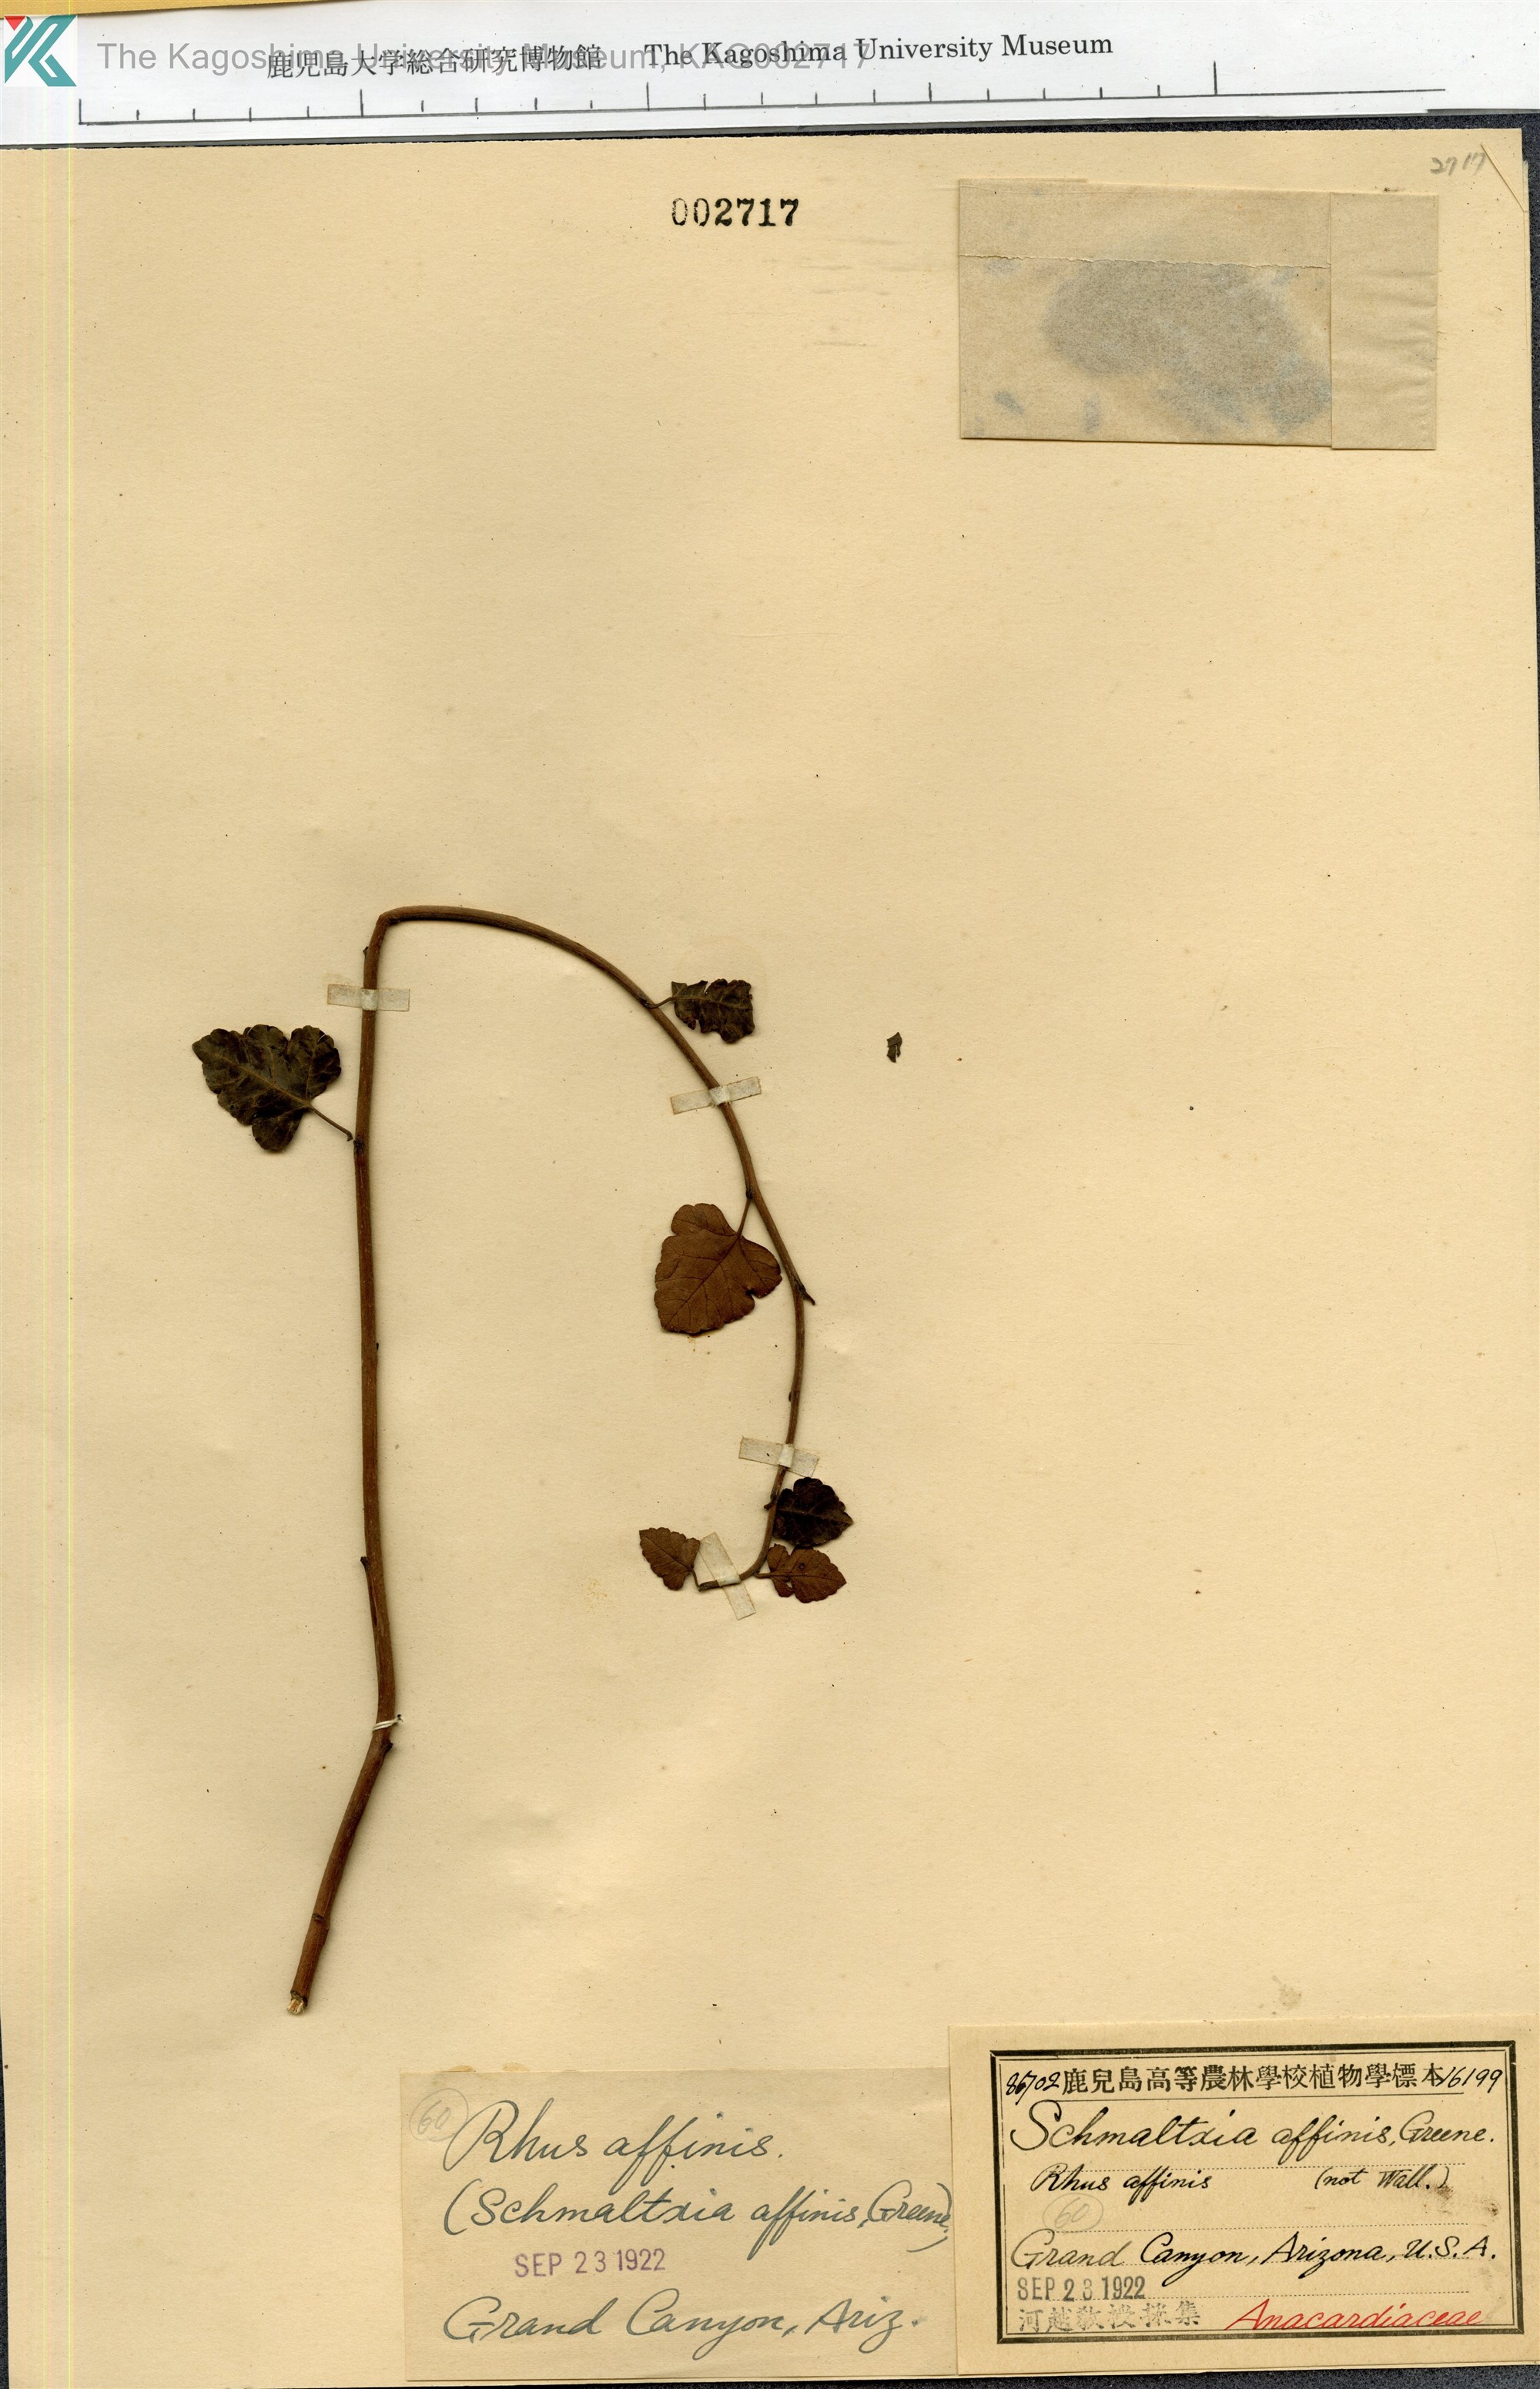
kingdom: Plantae
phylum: Tracheophyta
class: Magnoliopsida
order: Sapindales
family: Anacardiaceae
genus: Rhus
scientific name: Rhus trilobata
